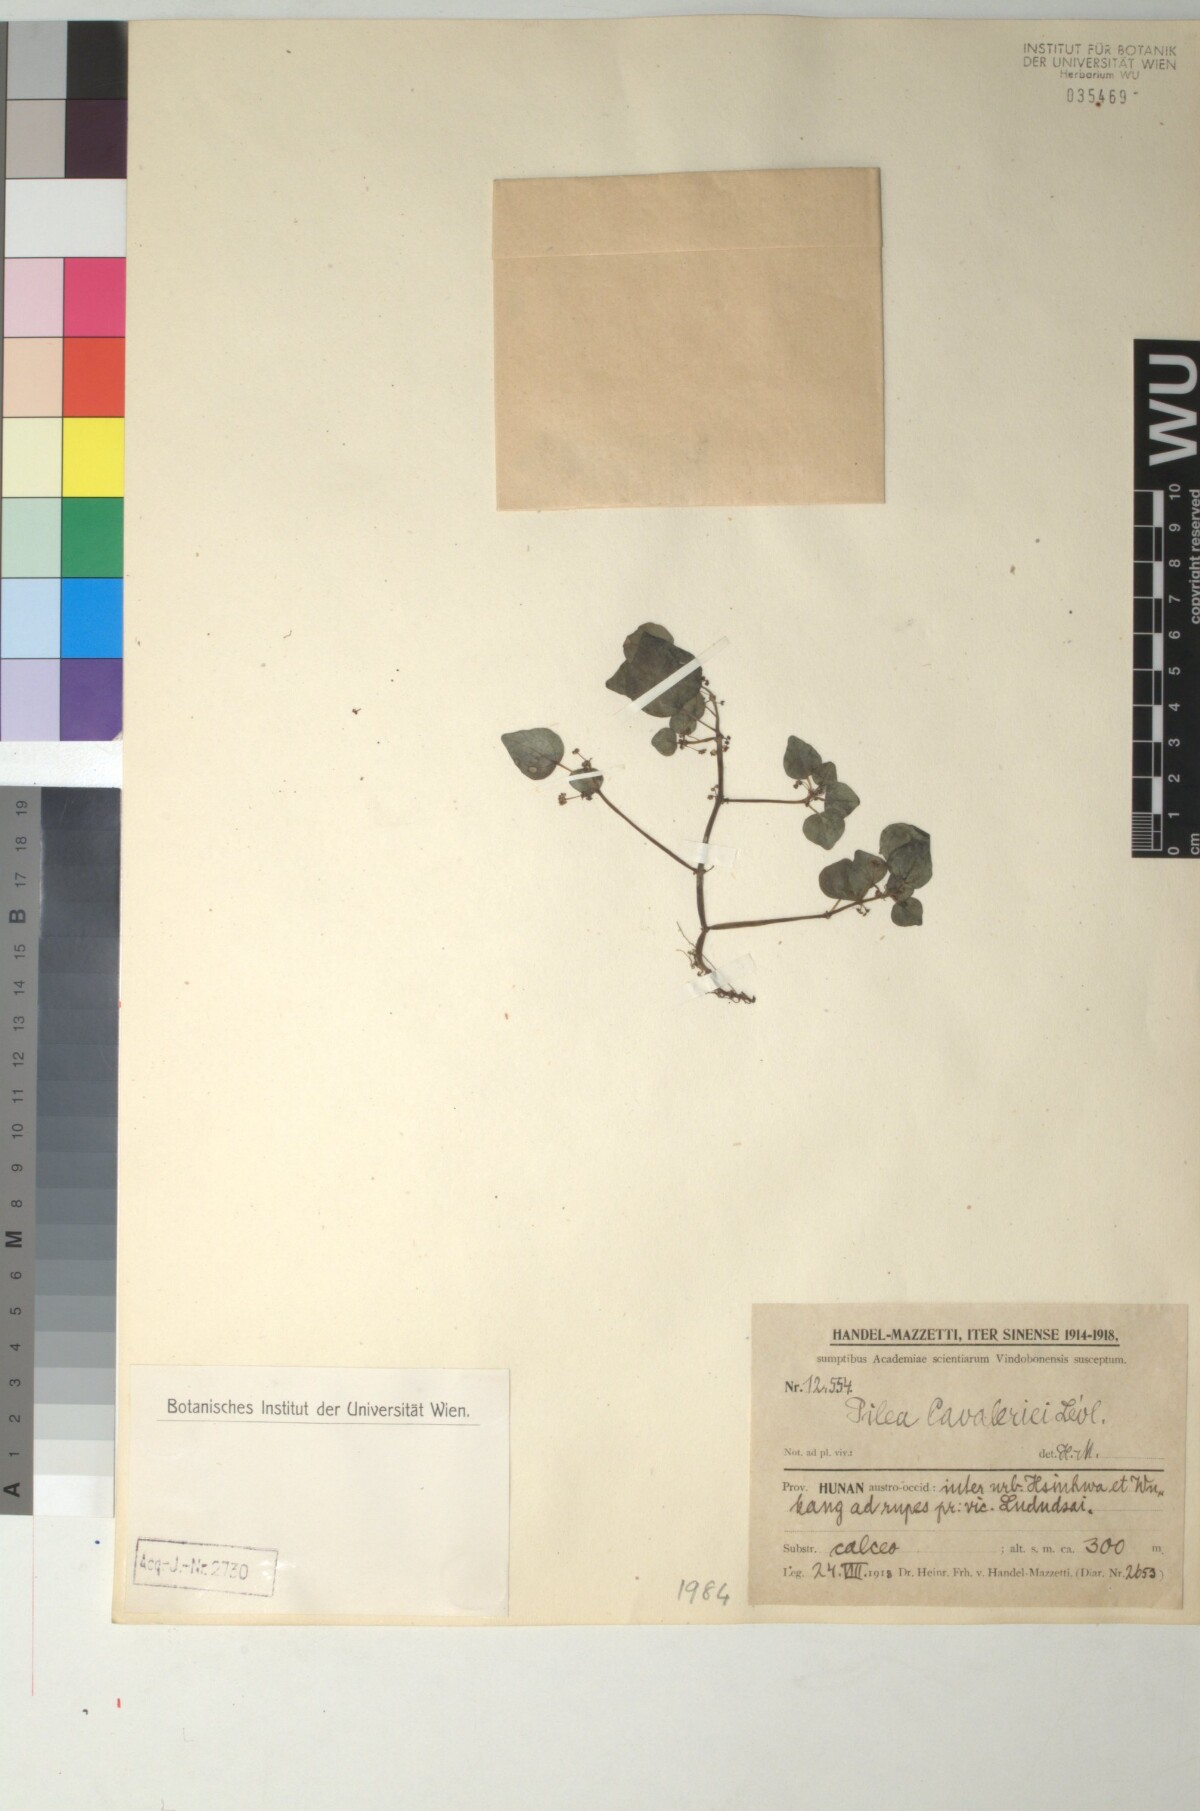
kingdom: Plantae
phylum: Tracheophyta
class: Magnoliopsida
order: Rosales
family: Urticaceae
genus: Pilea
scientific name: Pilea cavaleriei
